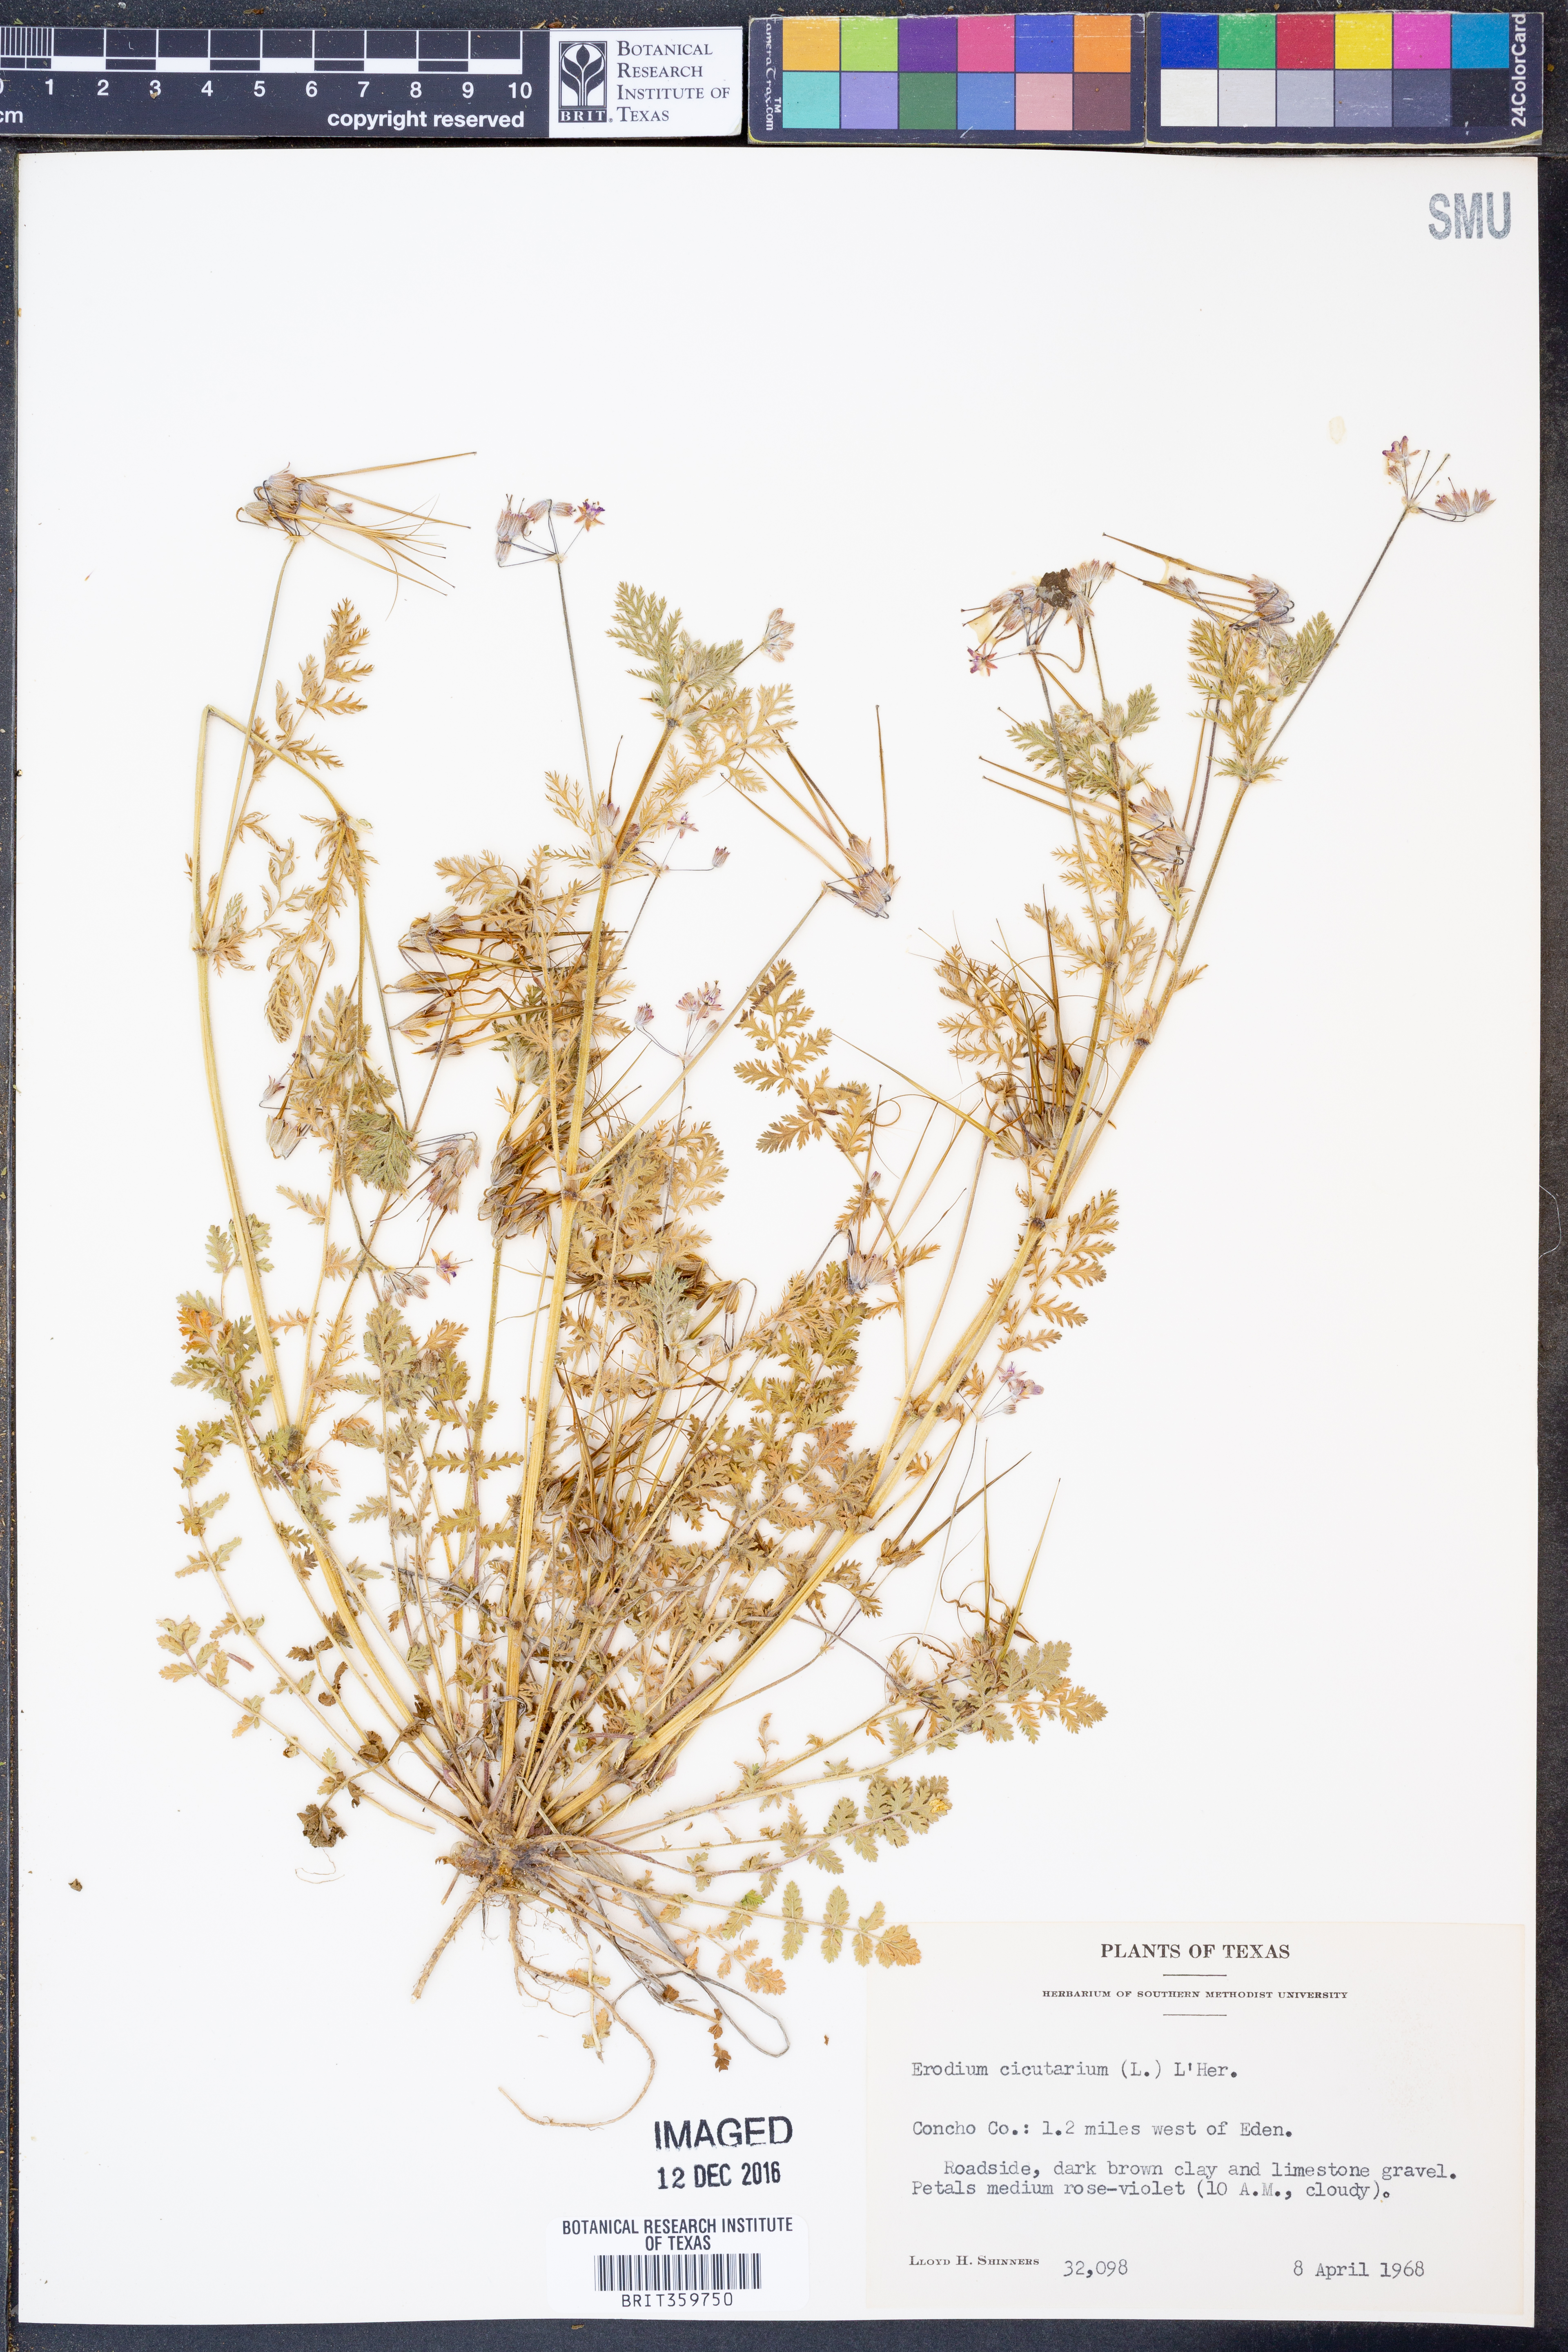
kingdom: Plantae
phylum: Tracheophyta
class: Magnoliopsida
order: Geraniales
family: Geraniaceae
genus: Erodium
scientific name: Erodium cicutarium
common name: Common stork's-bill
